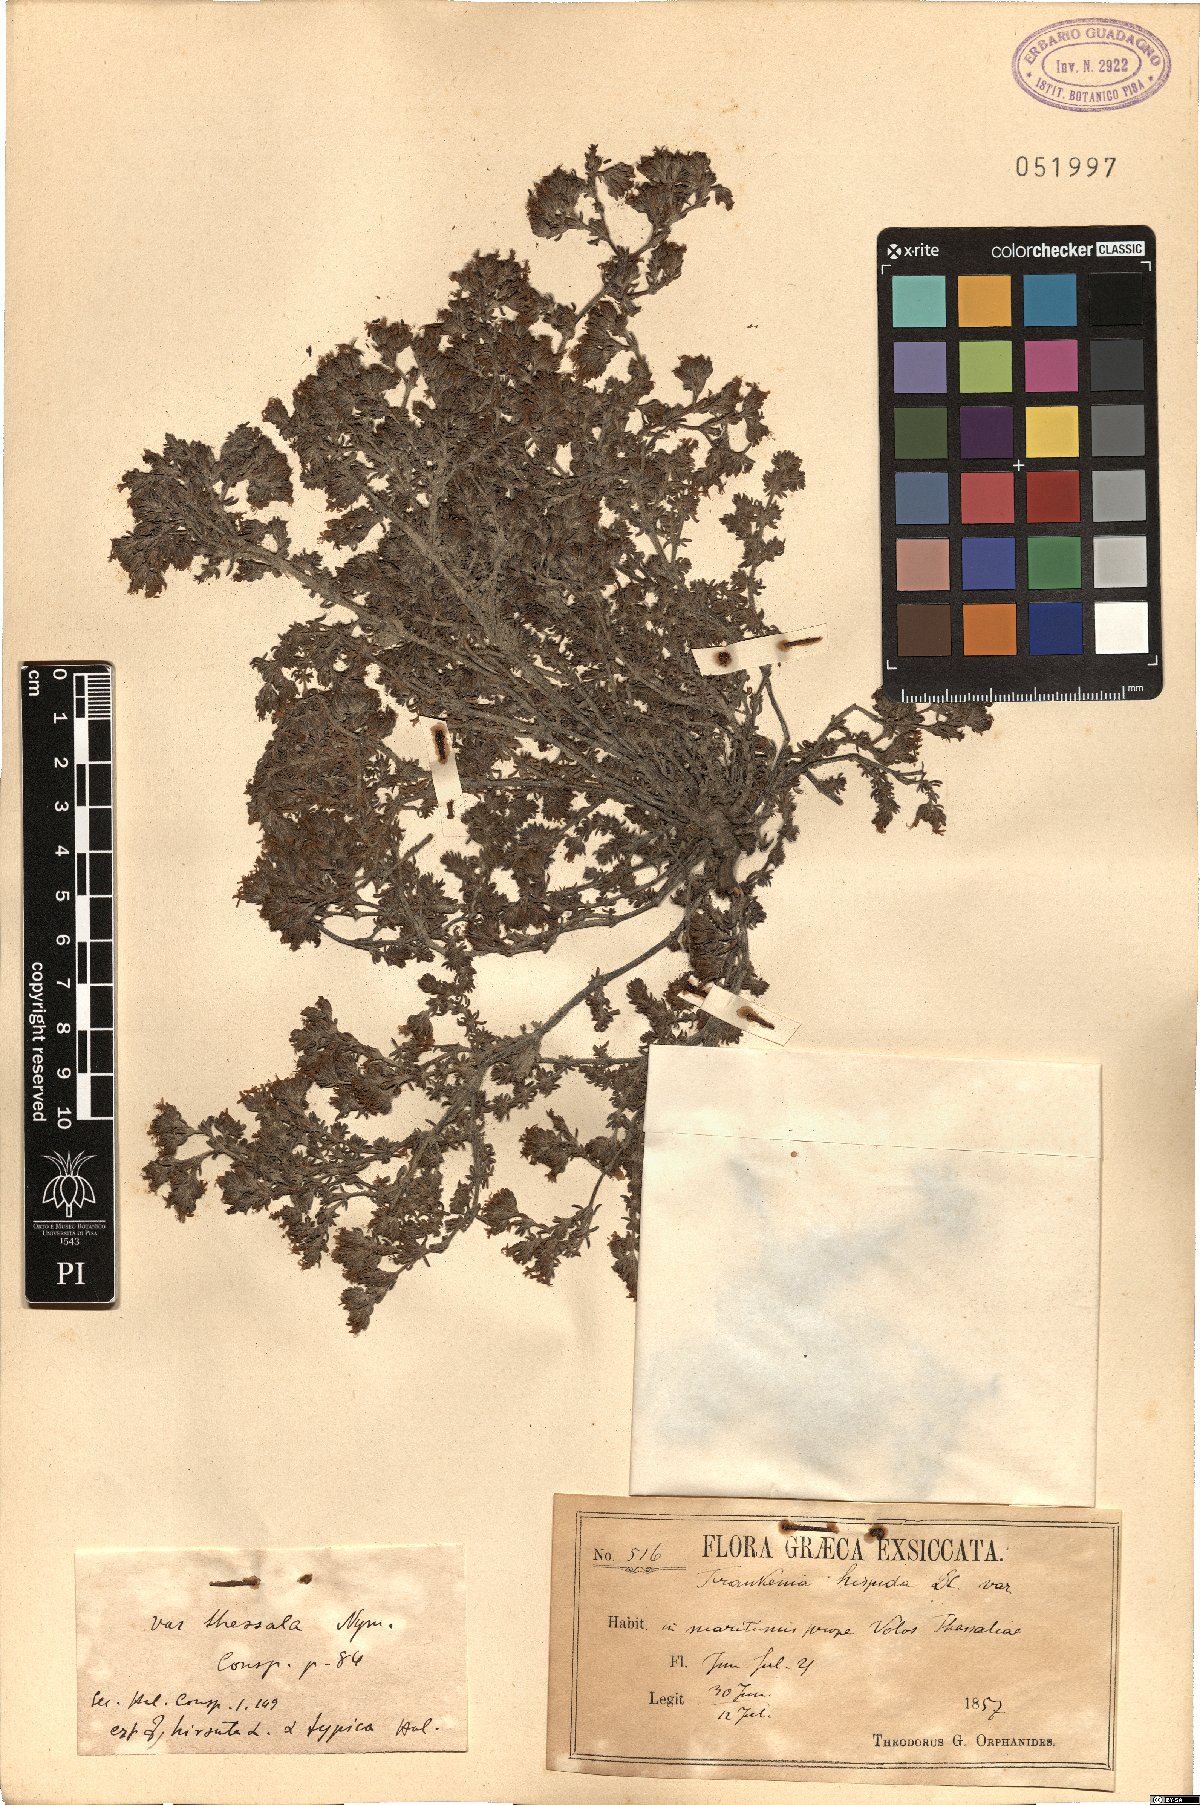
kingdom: Plantae
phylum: Tracheophyta
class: Magnoliopsida
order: Caryophyllales
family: Frankeniaceae
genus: Frankenia
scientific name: Frankenia hirsuta
